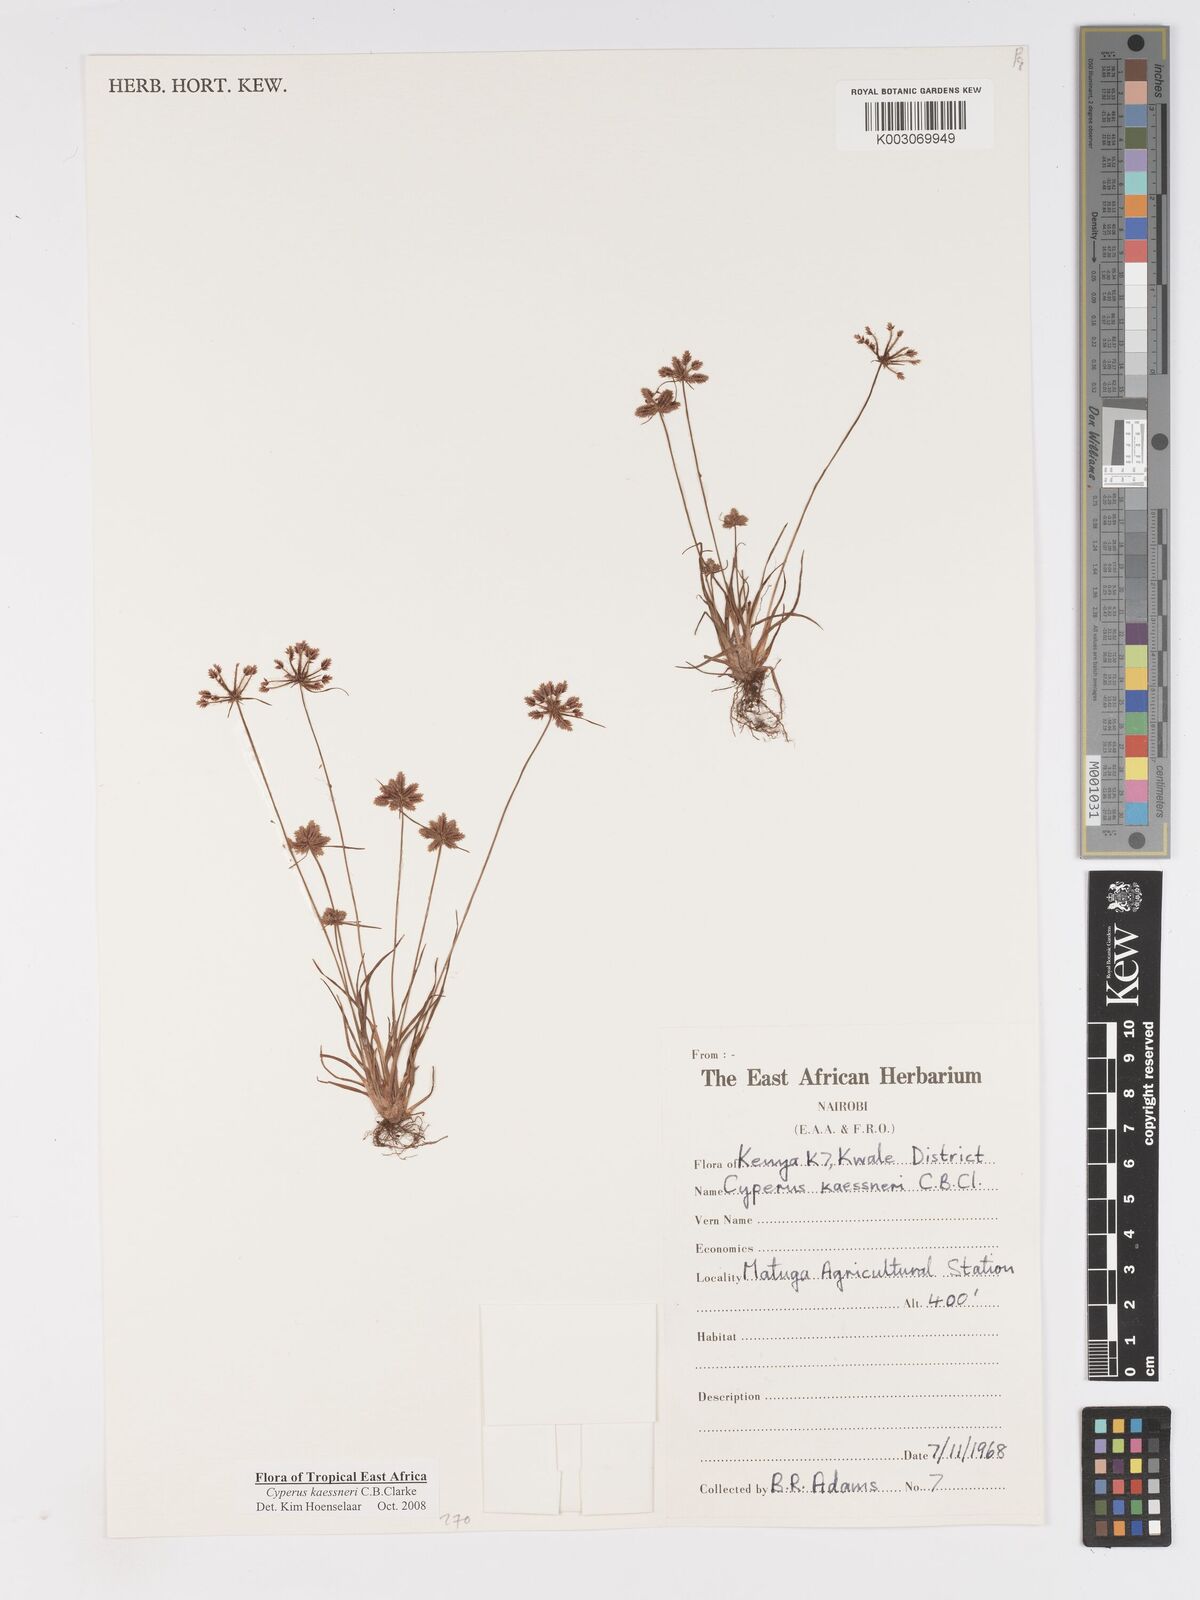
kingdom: Plantae
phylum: Tracheophyta
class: Liliopsida
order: Poales
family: Cyperaceae
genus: Cyperus
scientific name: Cyperus kaessneri
